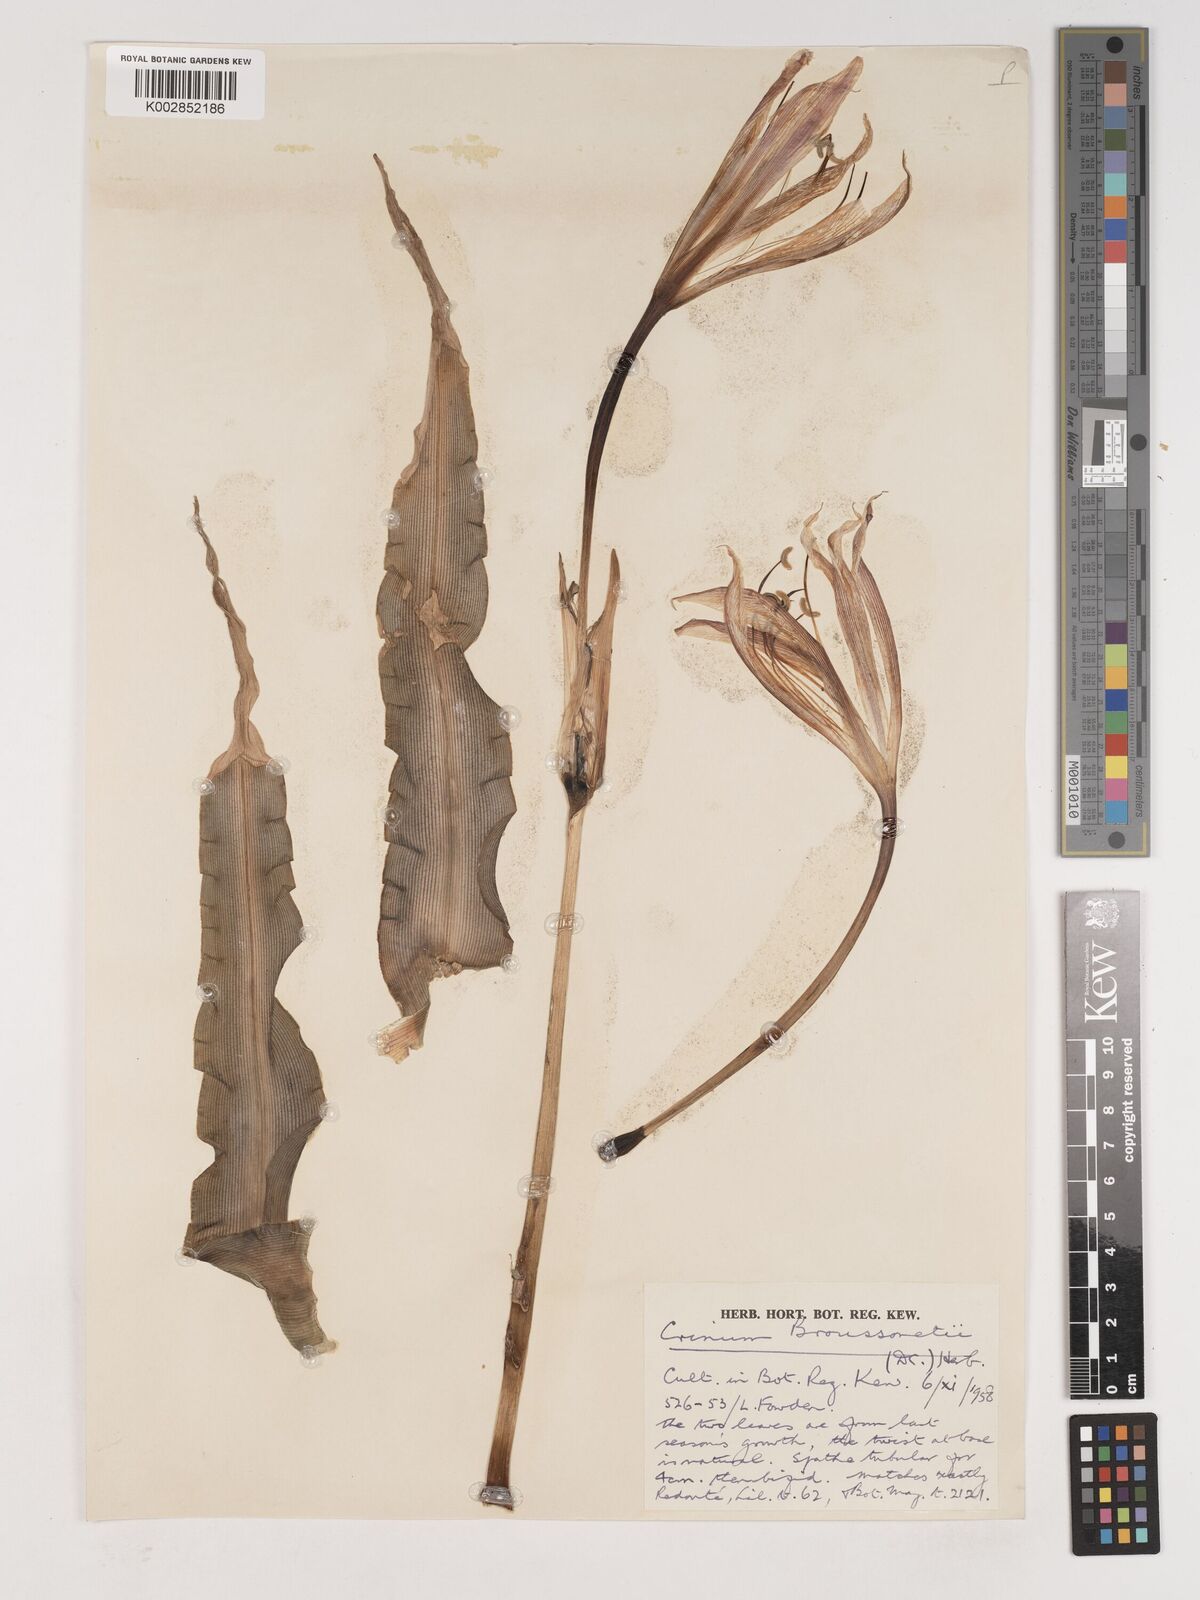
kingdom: Plantae
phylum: Tracheophyta
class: Liliopsida
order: Asparagales
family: Amaryllidaceae
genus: Crinum
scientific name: Crinum ornatum
